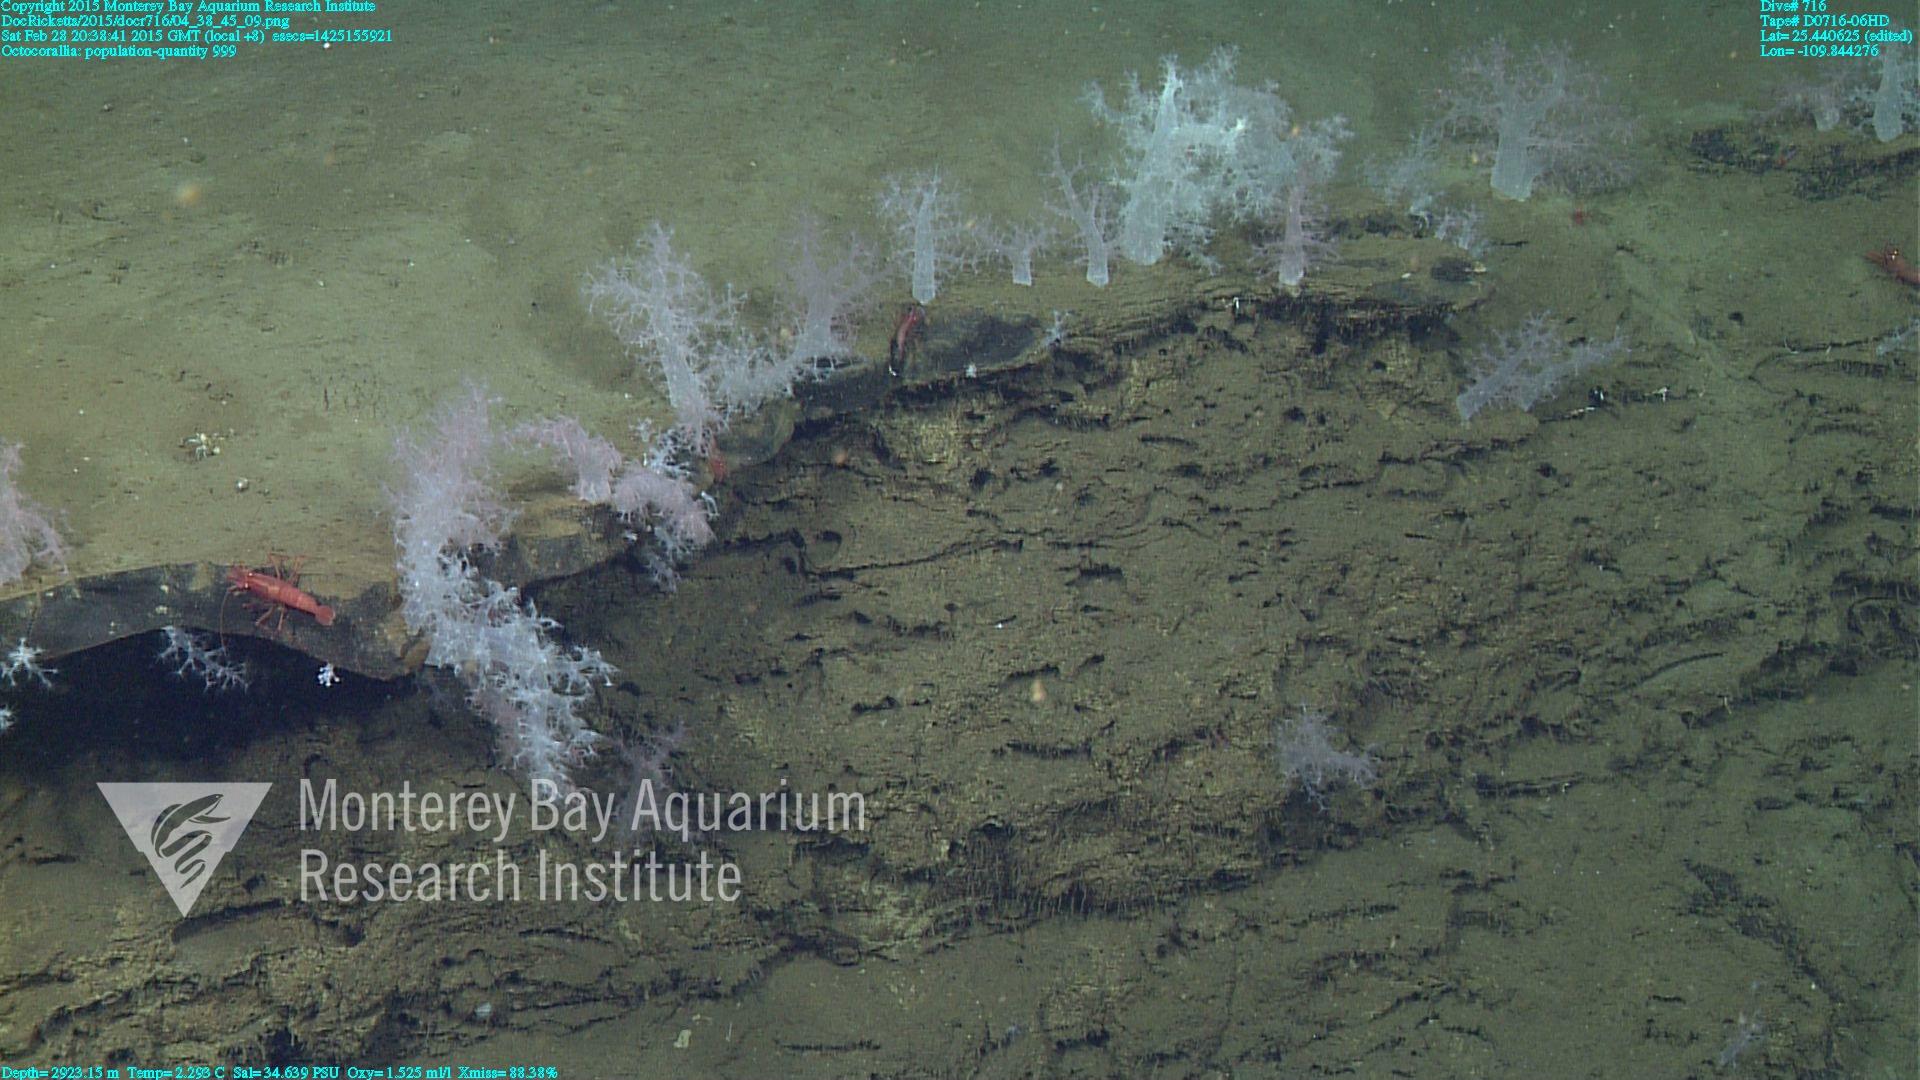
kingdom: Animalia
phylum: Cnidaria
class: Anthozoa
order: Malacalcyonacea
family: Alcyoniidae
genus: Gersemia
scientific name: Gersemia juliepackardae
